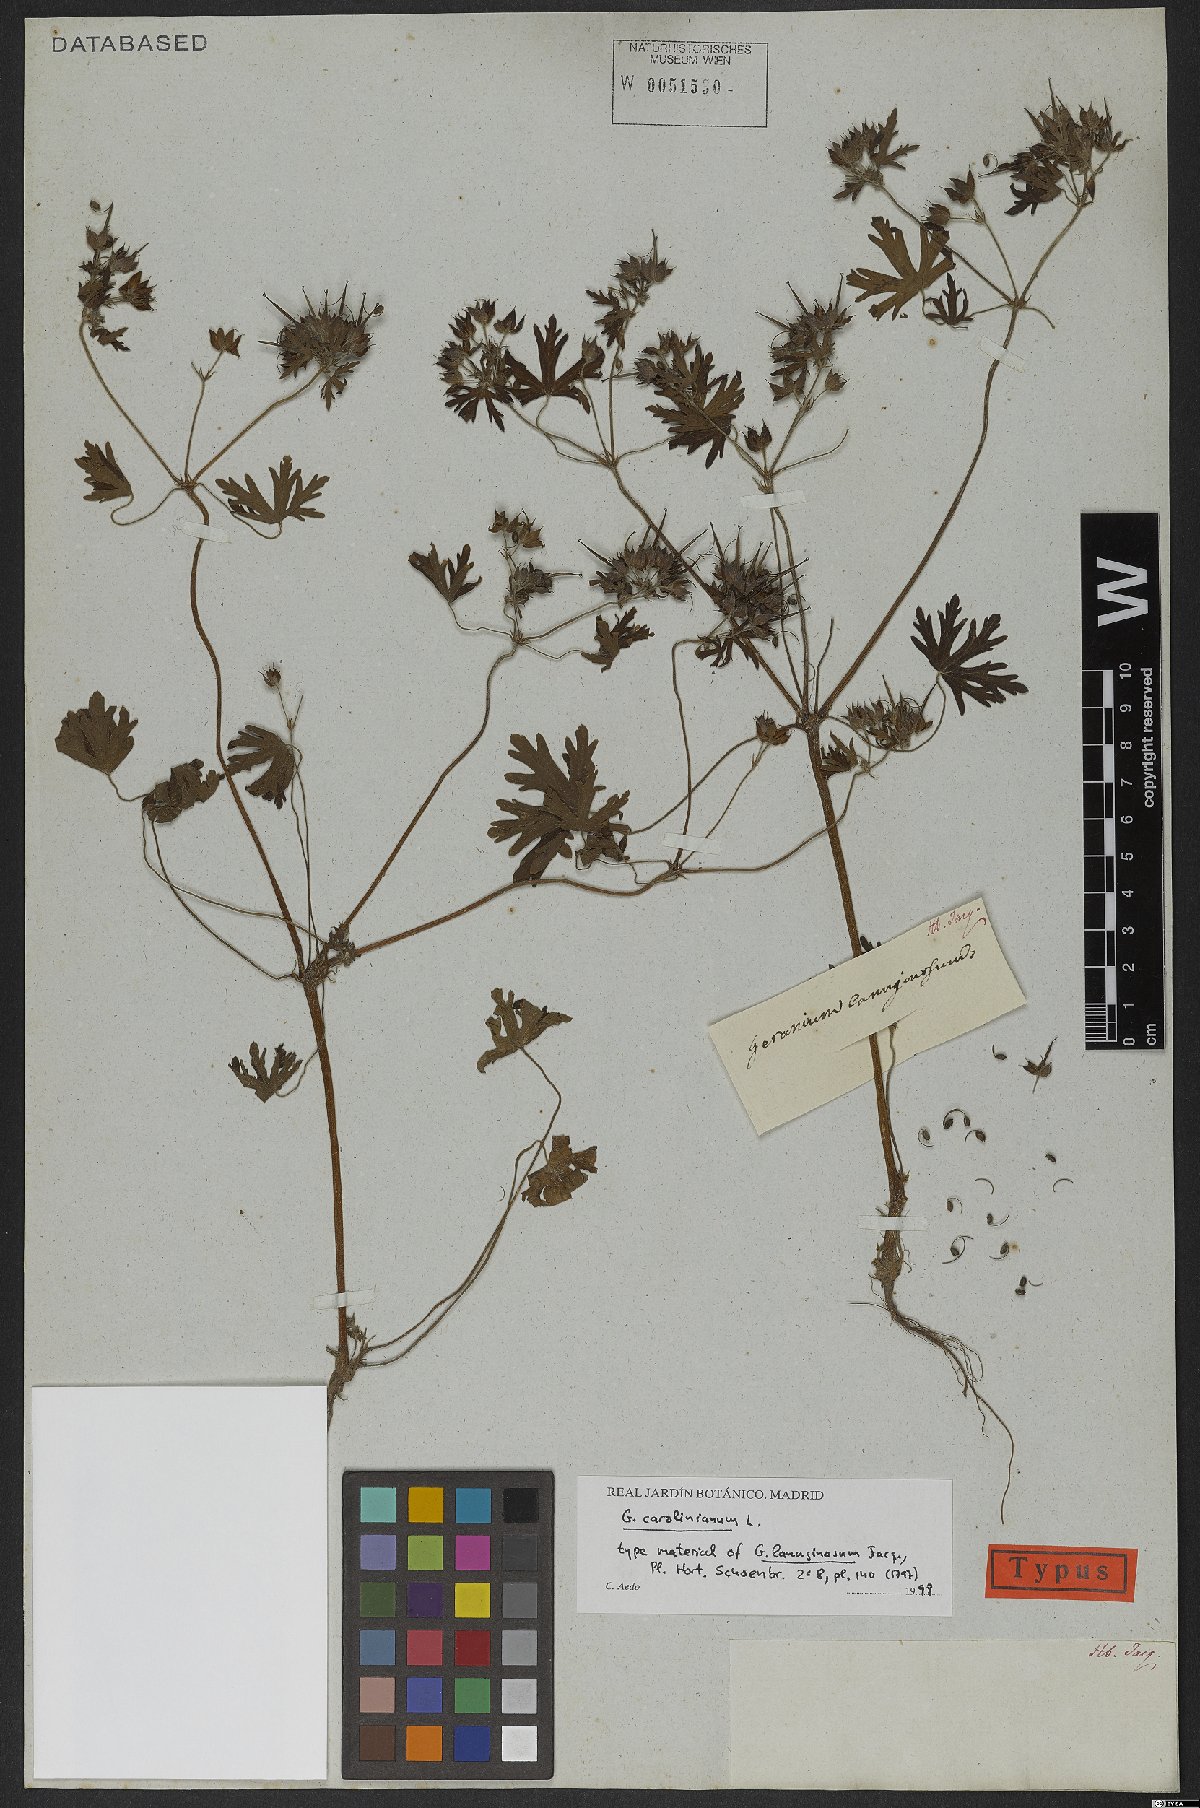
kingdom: Plantae
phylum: Tracheophyta
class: Magnoliopsida
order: Geraniales
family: Geraniaceae
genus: Geranium
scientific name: Geranium carolinianum
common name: Carolina crane's-bill
